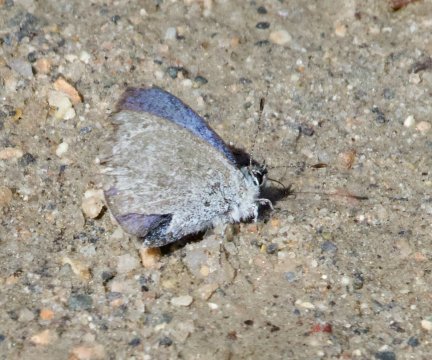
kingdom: Animalia
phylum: Arthropoda
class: Insecta
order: Lepidoptera
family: Lycaenidae
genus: Celastrina
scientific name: Celastrina ladon
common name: Spring Azure
